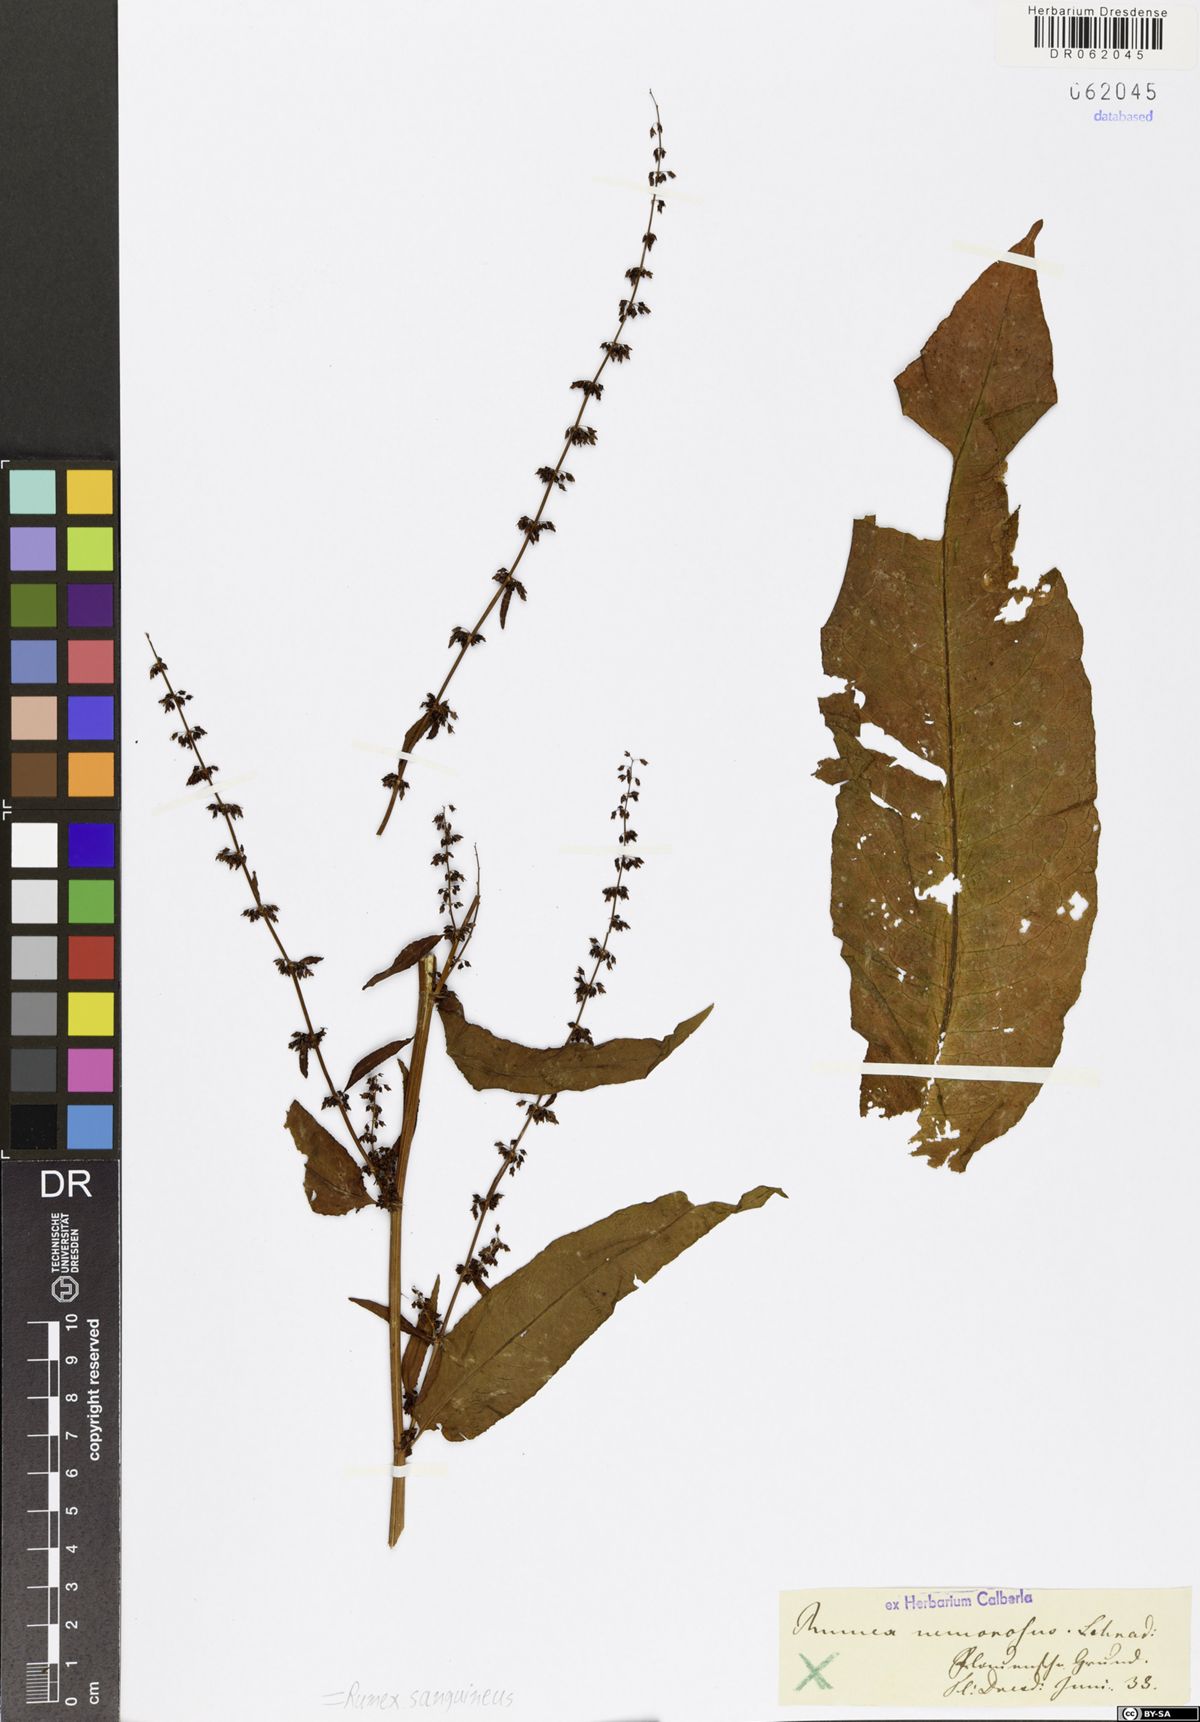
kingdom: Plantae
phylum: Tracheophyta
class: Magnoliopsida
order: Caryophyllales
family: Polygonaceae
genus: Rumex
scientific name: Rumex sanguineus
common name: Wood dock
